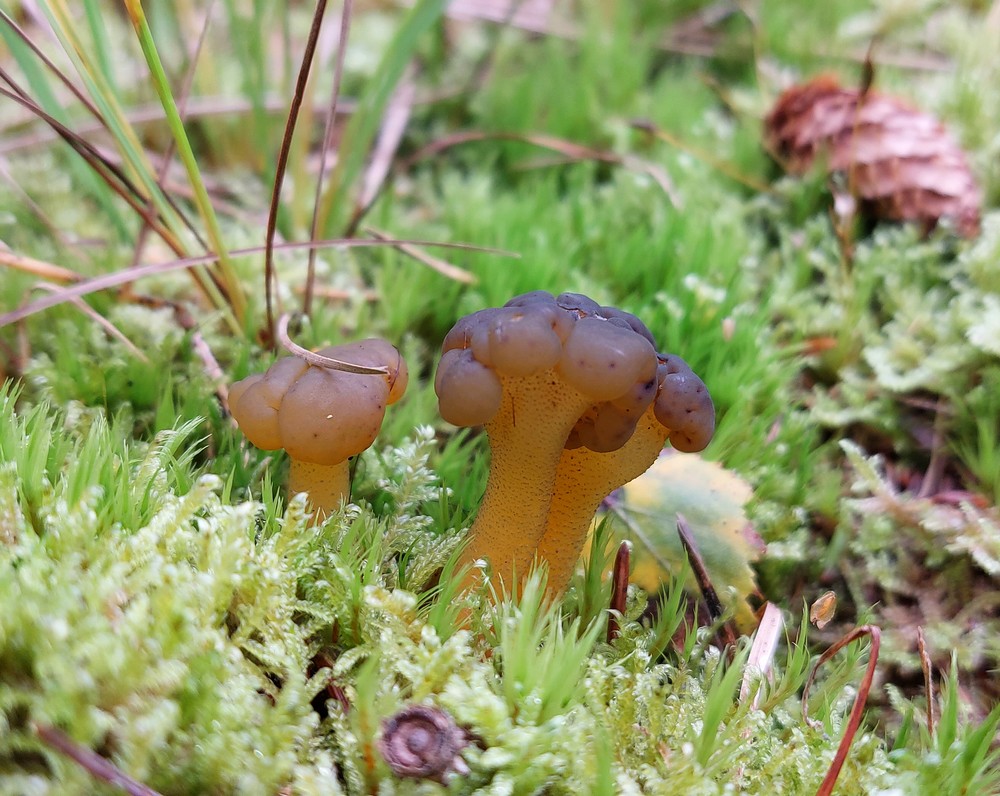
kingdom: Fungi
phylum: Ascomycota
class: Leotiomycetes
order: Leotiales
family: Leotiaceae
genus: Leotia
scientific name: Leotia lubrica
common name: ravsvamp
